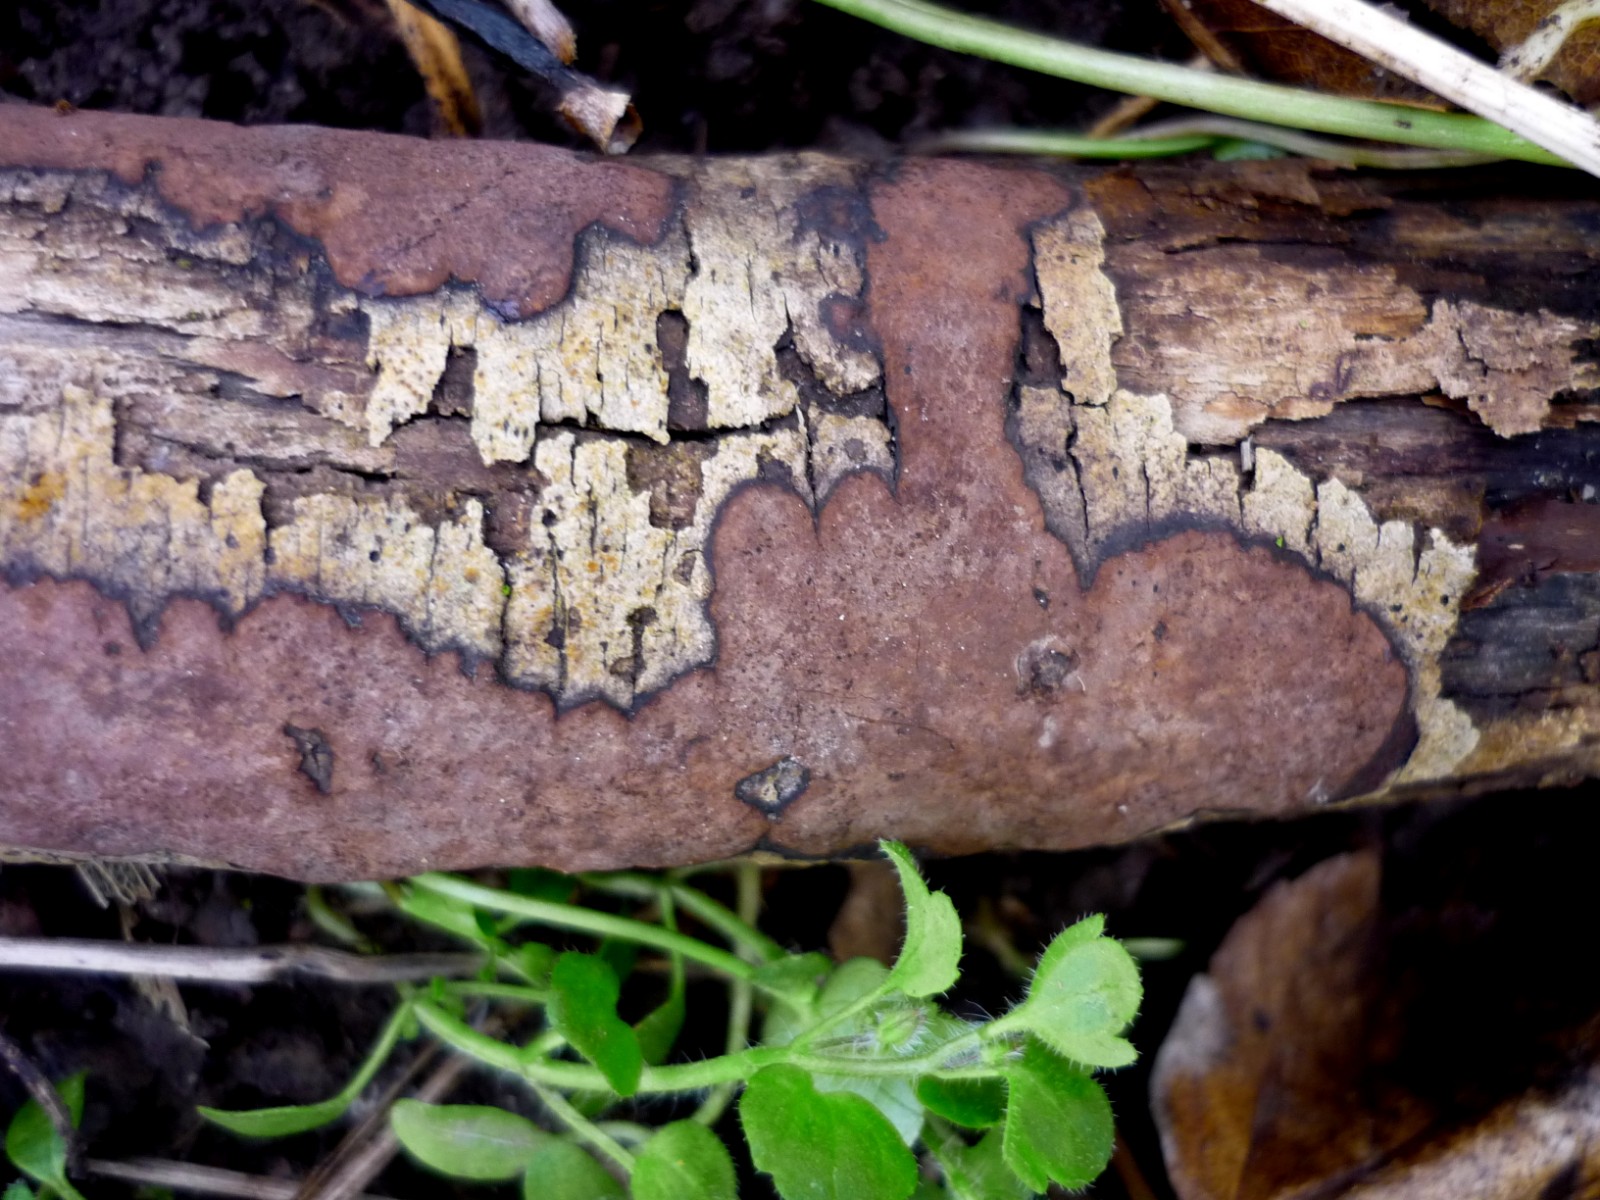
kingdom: Fungi
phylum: Ascomycota
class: Sordariomycetes
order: Xylariales
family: Hypoxylaceae
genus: Hypoxylon
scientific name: Hypoxylon petriniae
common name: nedsænket kulbær
